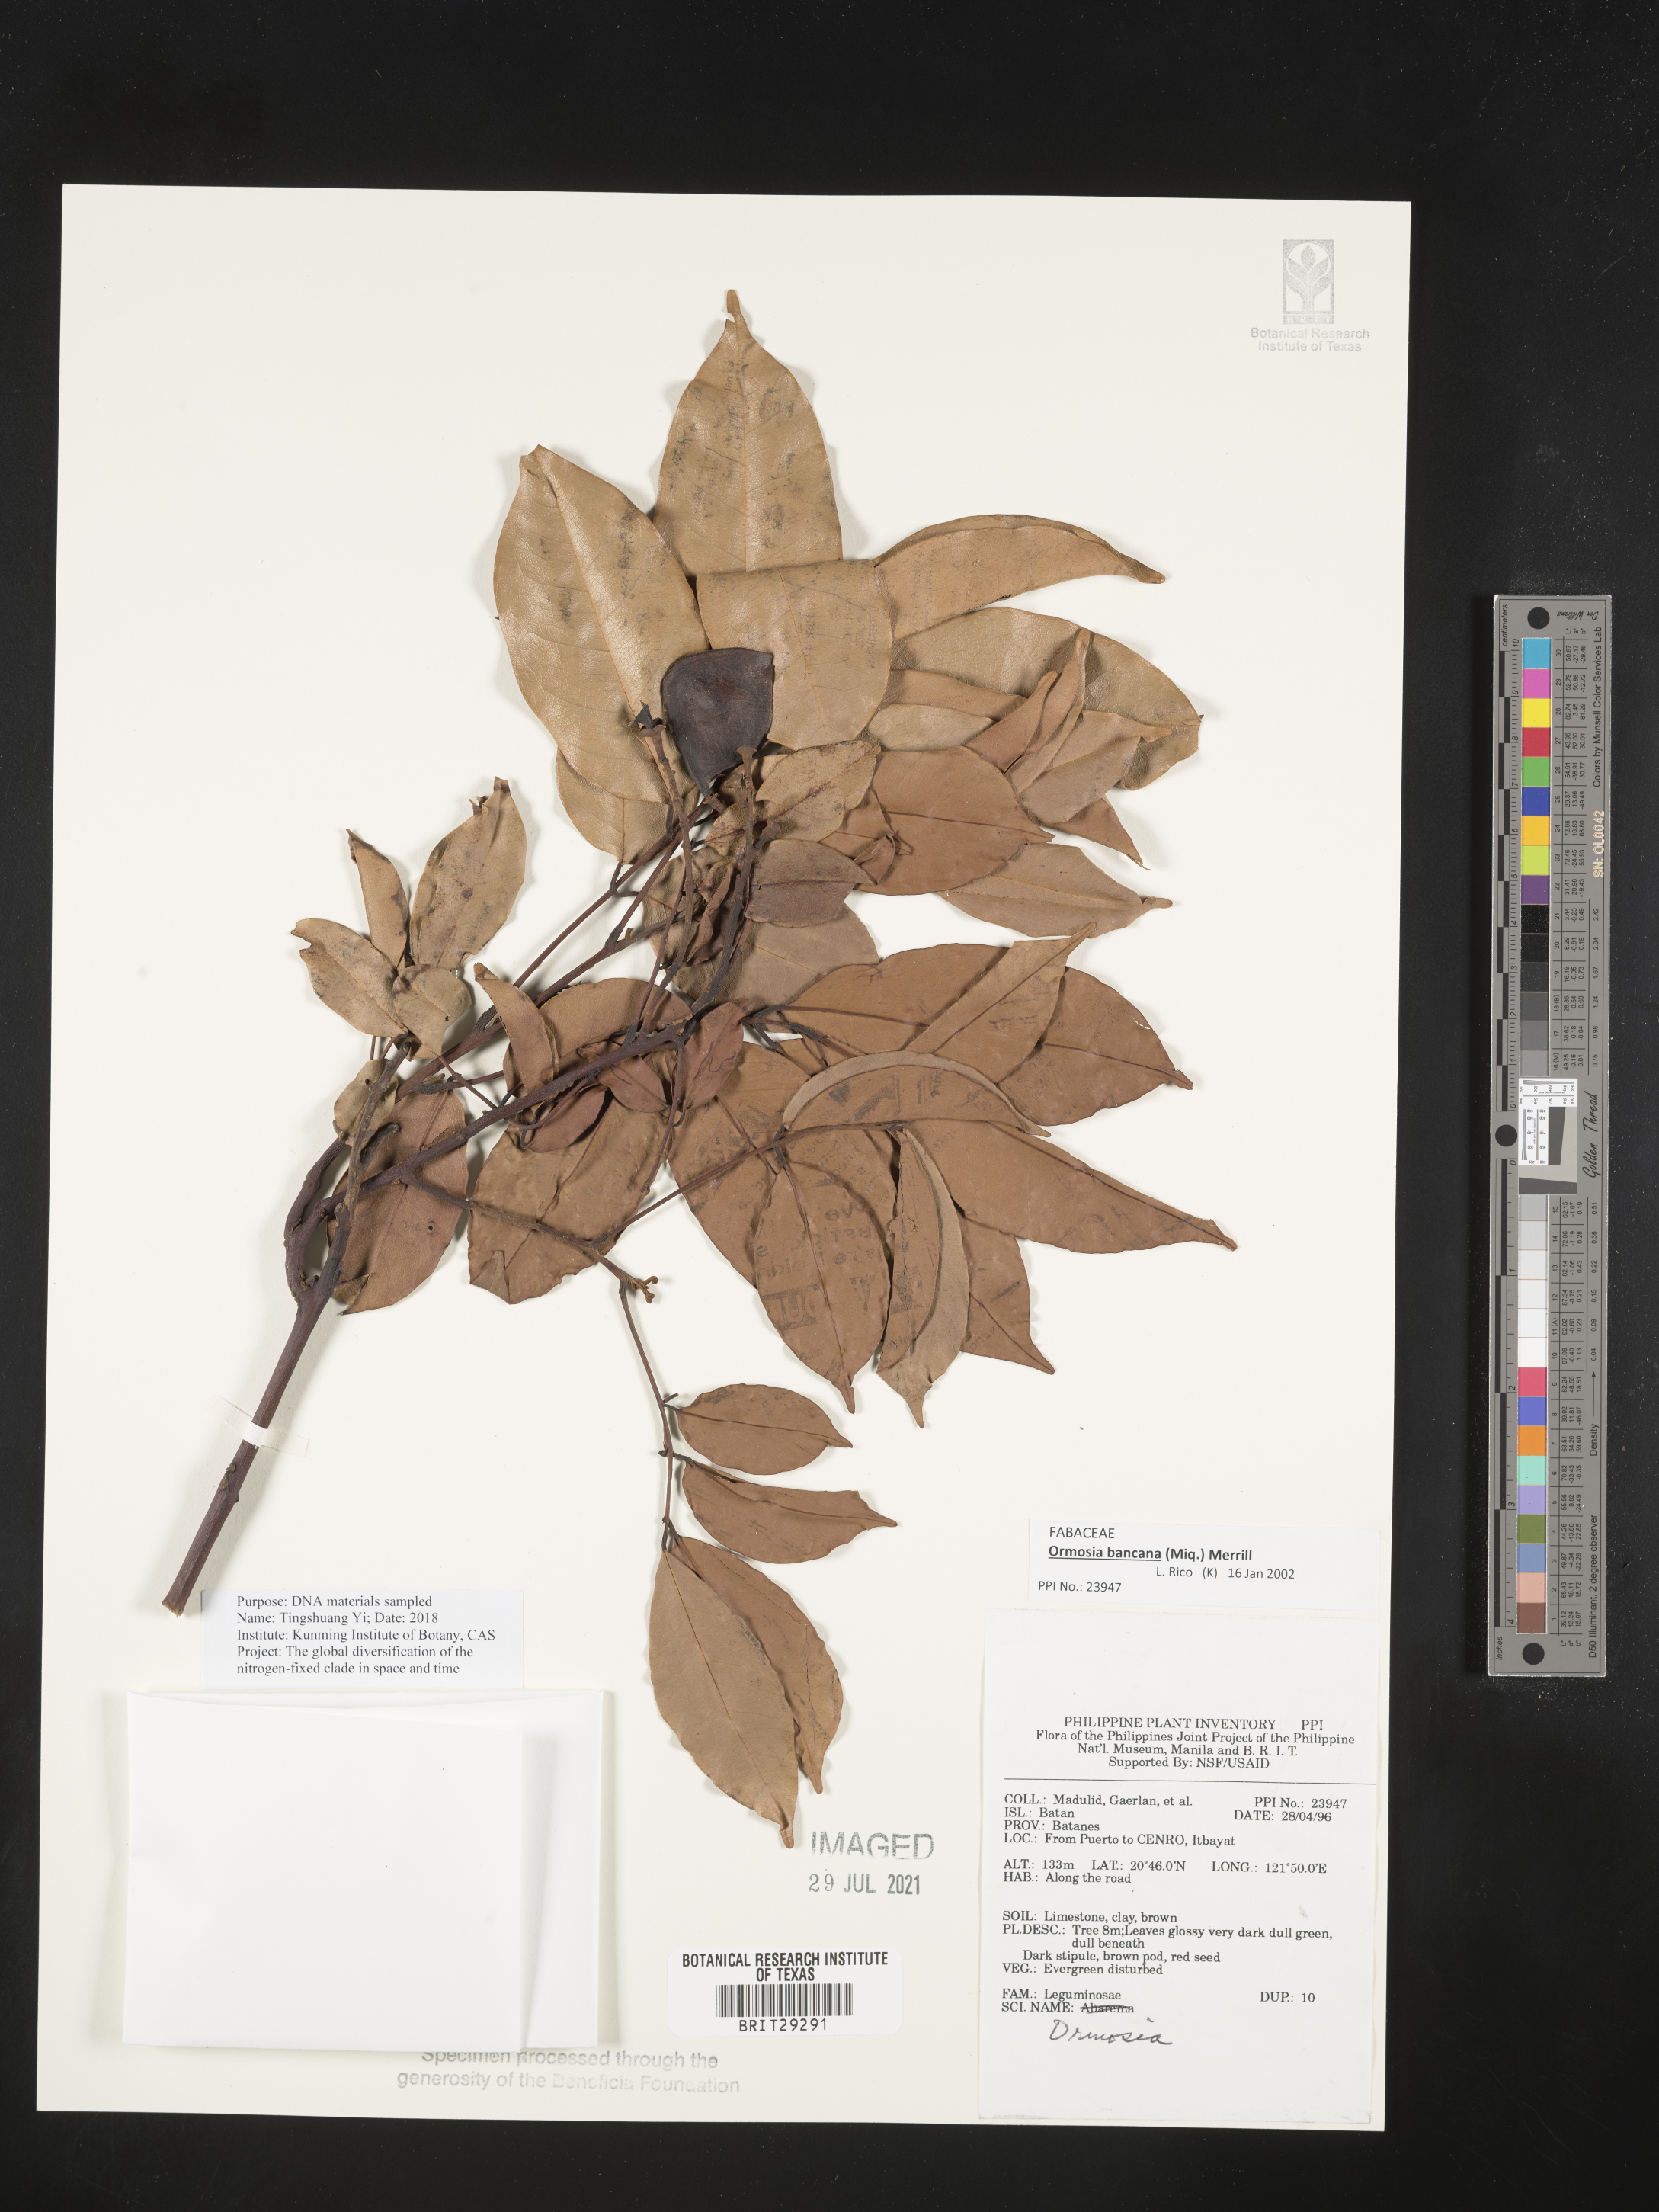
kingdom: Plantae
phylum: Tracheophyta
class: Magnoliopsida
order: Fabales
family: Fabaceae
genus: Dumasia
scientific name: Dumasia
